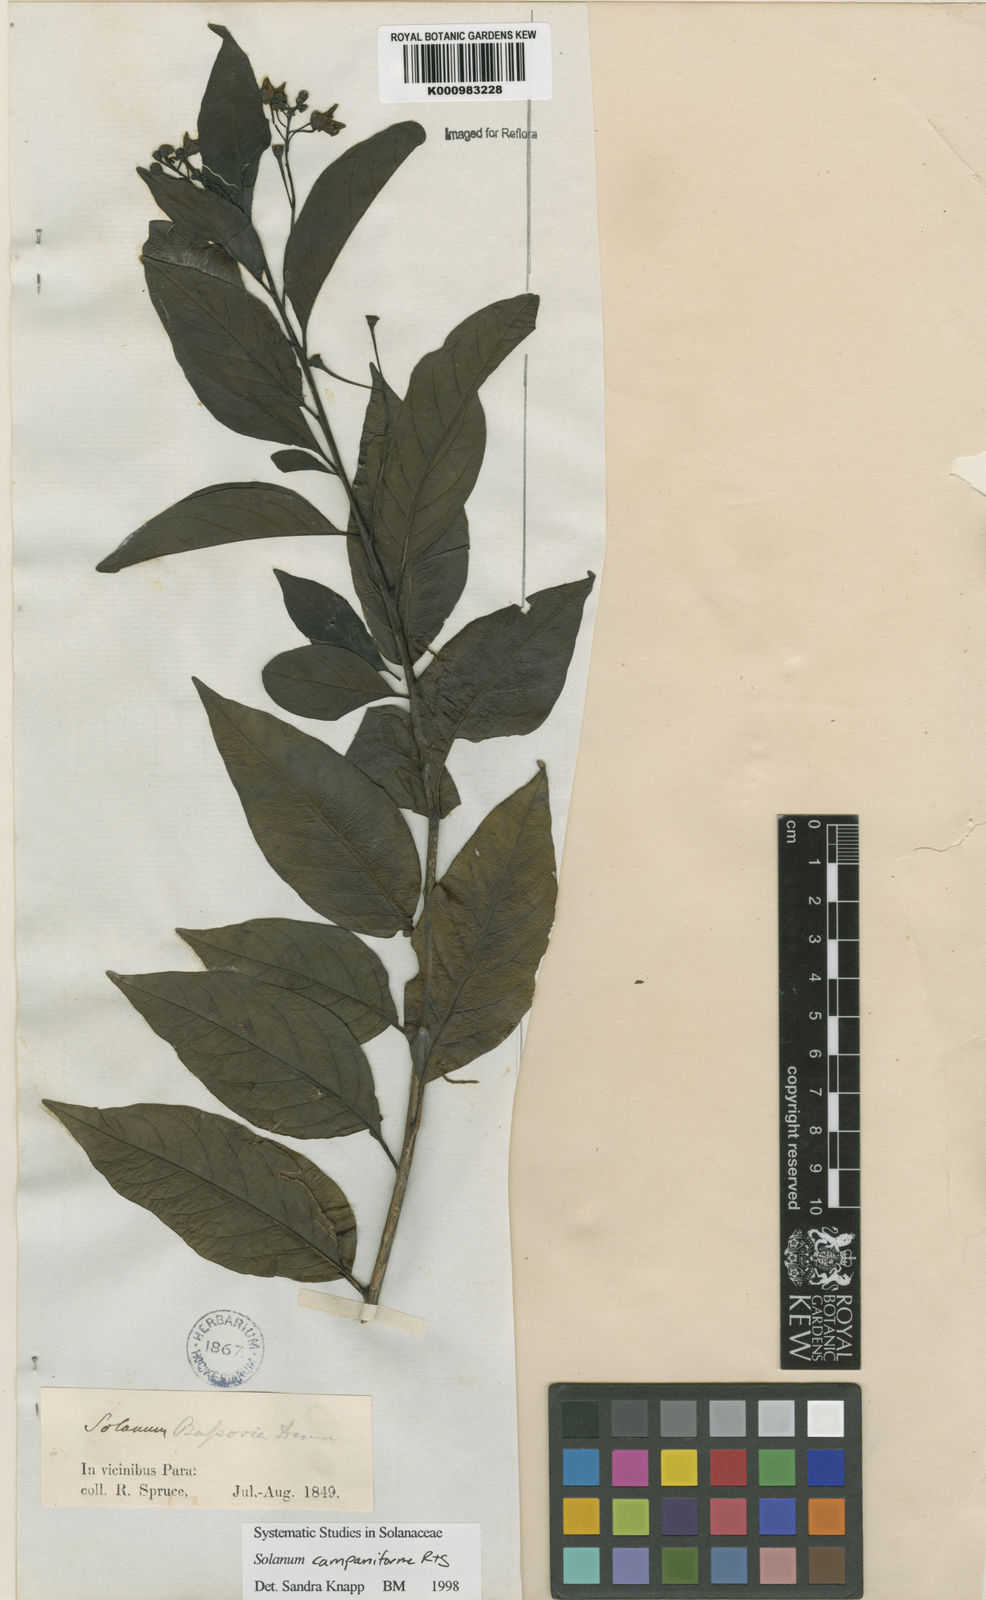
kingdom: Plantae
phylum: Tracheophyta
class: Magnoliopsida
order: Solanales
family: Solanaceae
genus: Solanum
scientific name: Solanum campaniforme
